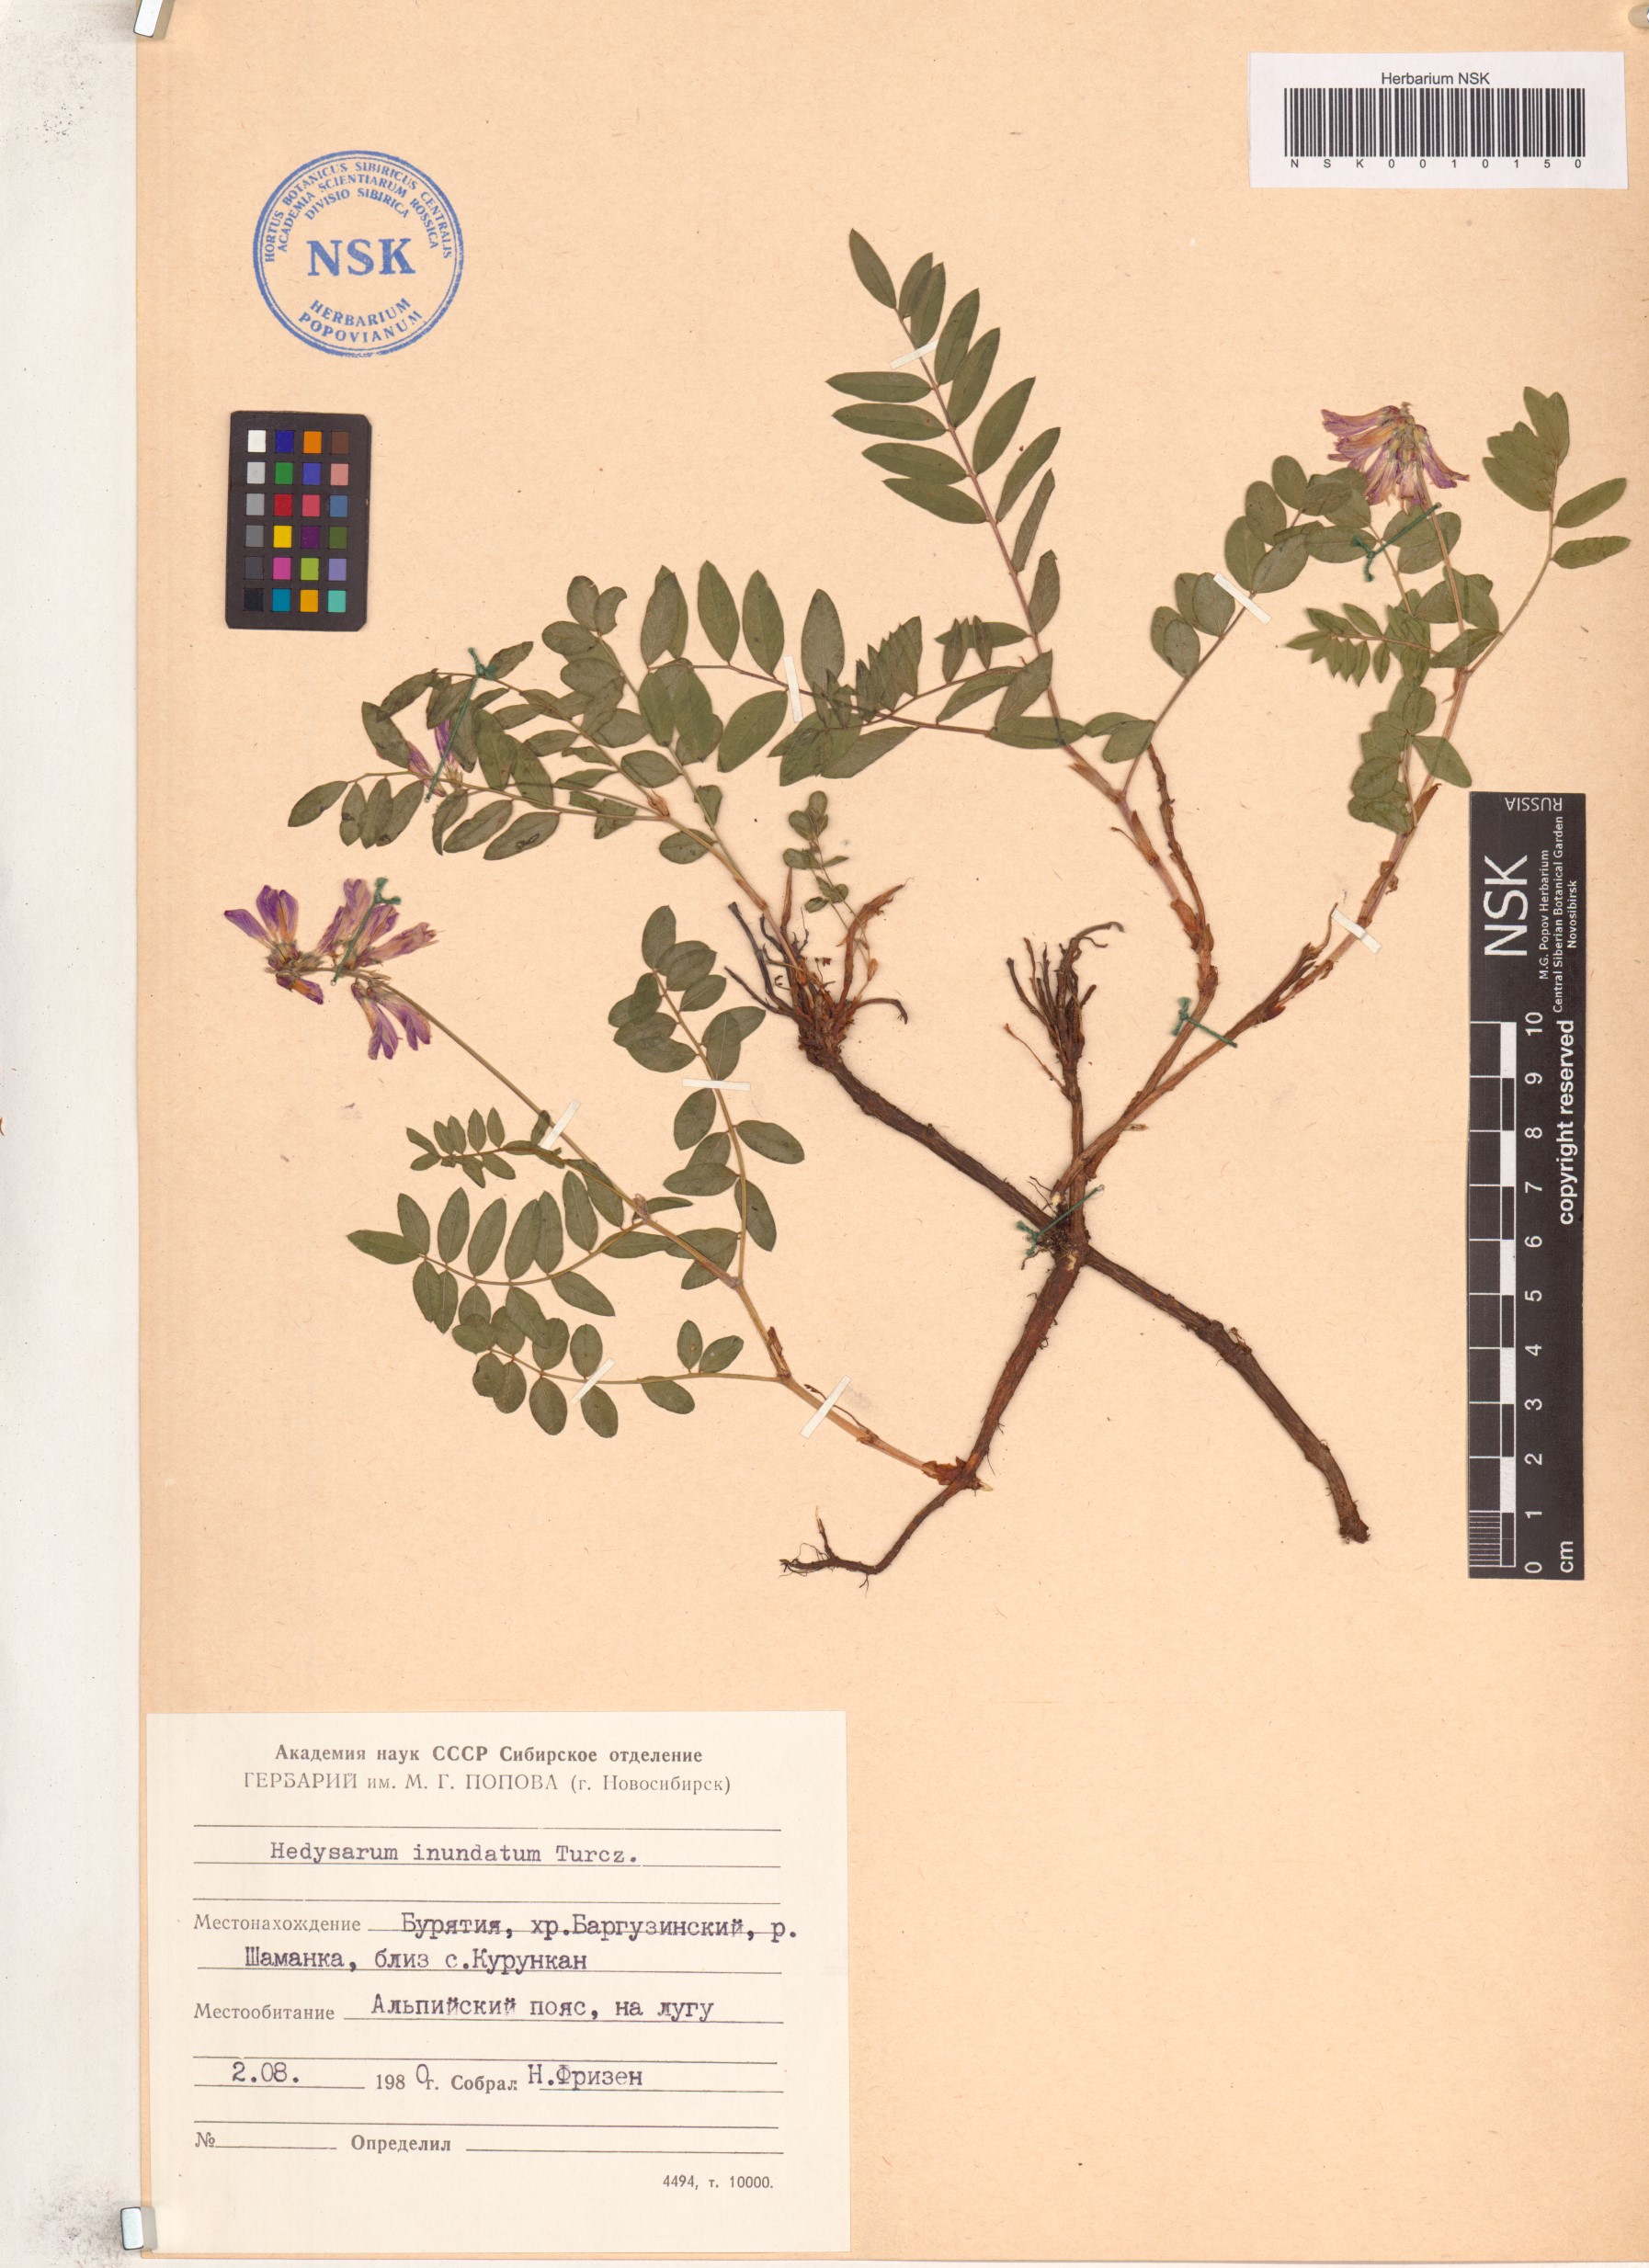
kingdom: Plantae
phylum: Tracheophyta
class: Magnoliopsida
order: Fabales
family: Fabaceae
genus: Hedysarum
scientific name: Hedysarum inundatum
